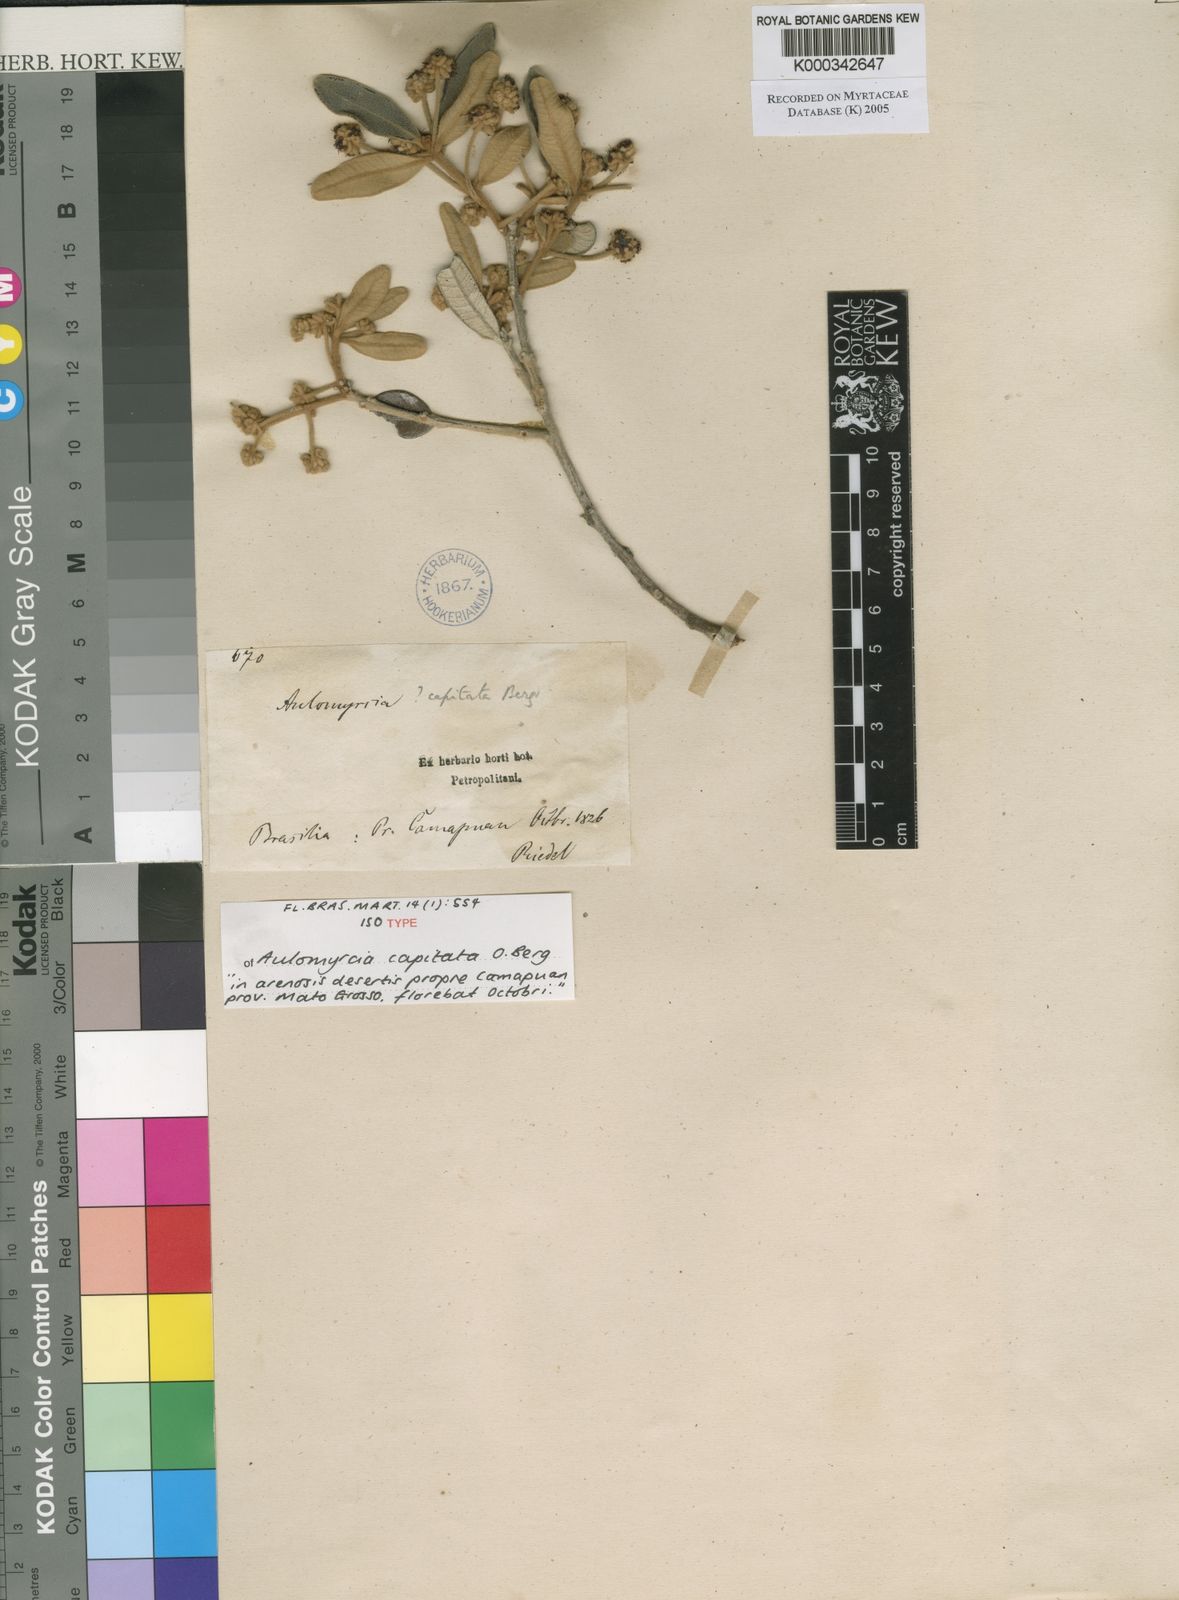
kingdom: Plantae
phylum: Tracheophyta
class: Magnoliopsida
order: Myrtales
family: Myrtaceae
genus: Myrcia
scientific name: Myrcia camapuanensis
